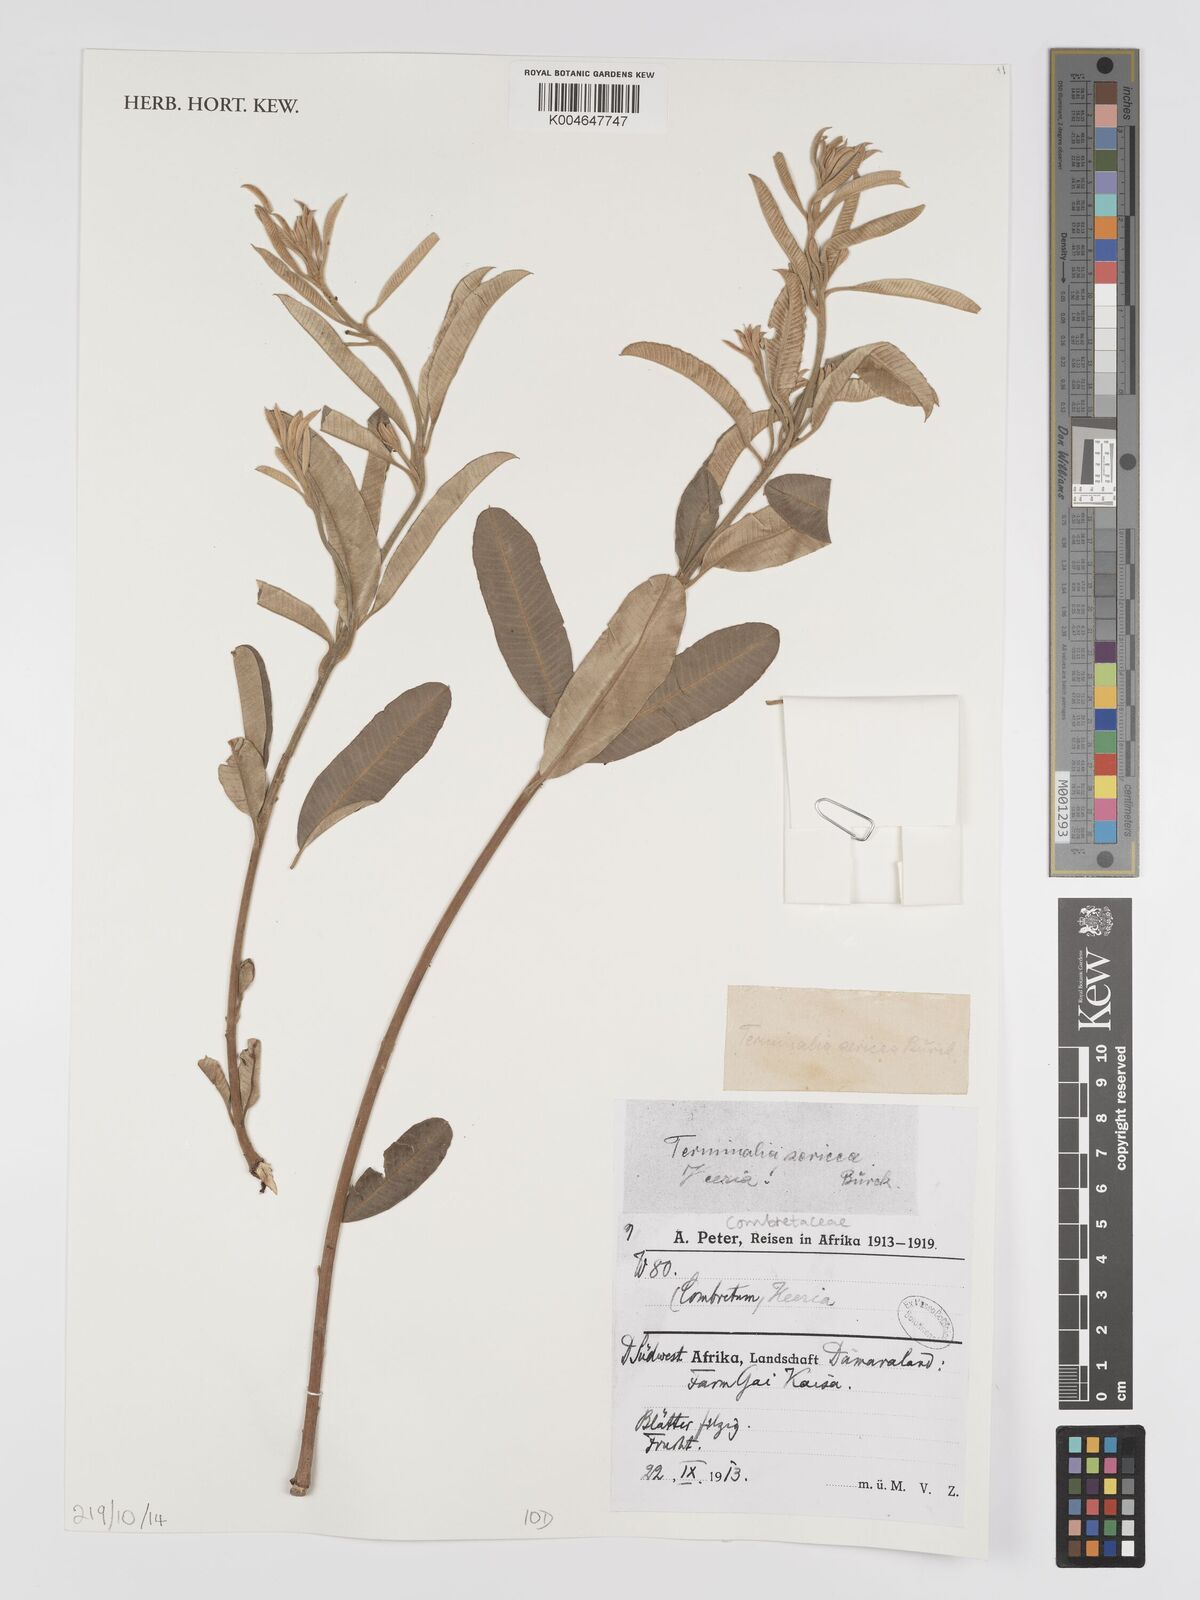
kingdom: Plantae
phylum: Tracheophyta
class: Magnoliopsida
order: Myrtales
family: Combretaceae
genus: Terminalia
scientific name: Terminalia
